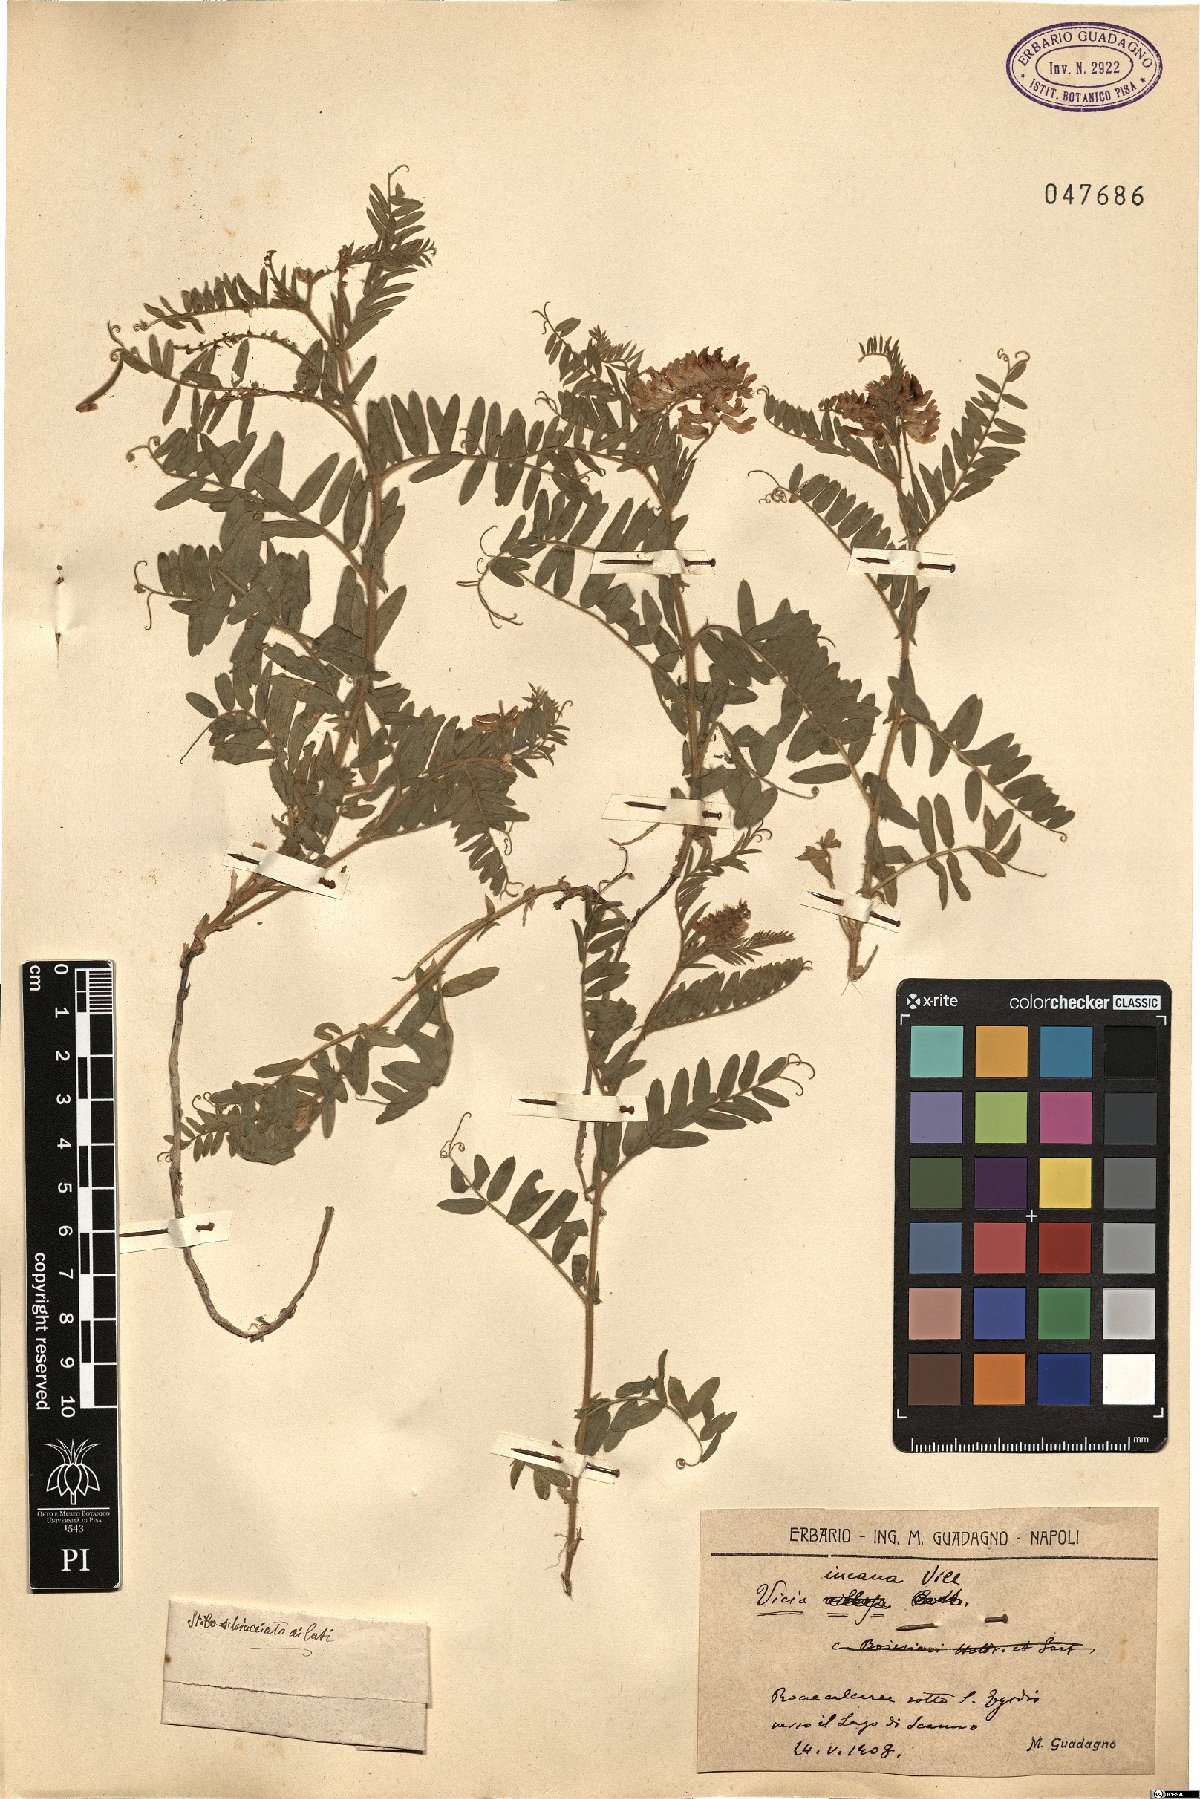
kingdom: Plantae
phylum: Tracheophyta
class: Magnoliopsida
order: Fabales
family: Fabaceae
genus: Vicia
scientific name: Vicia incana
